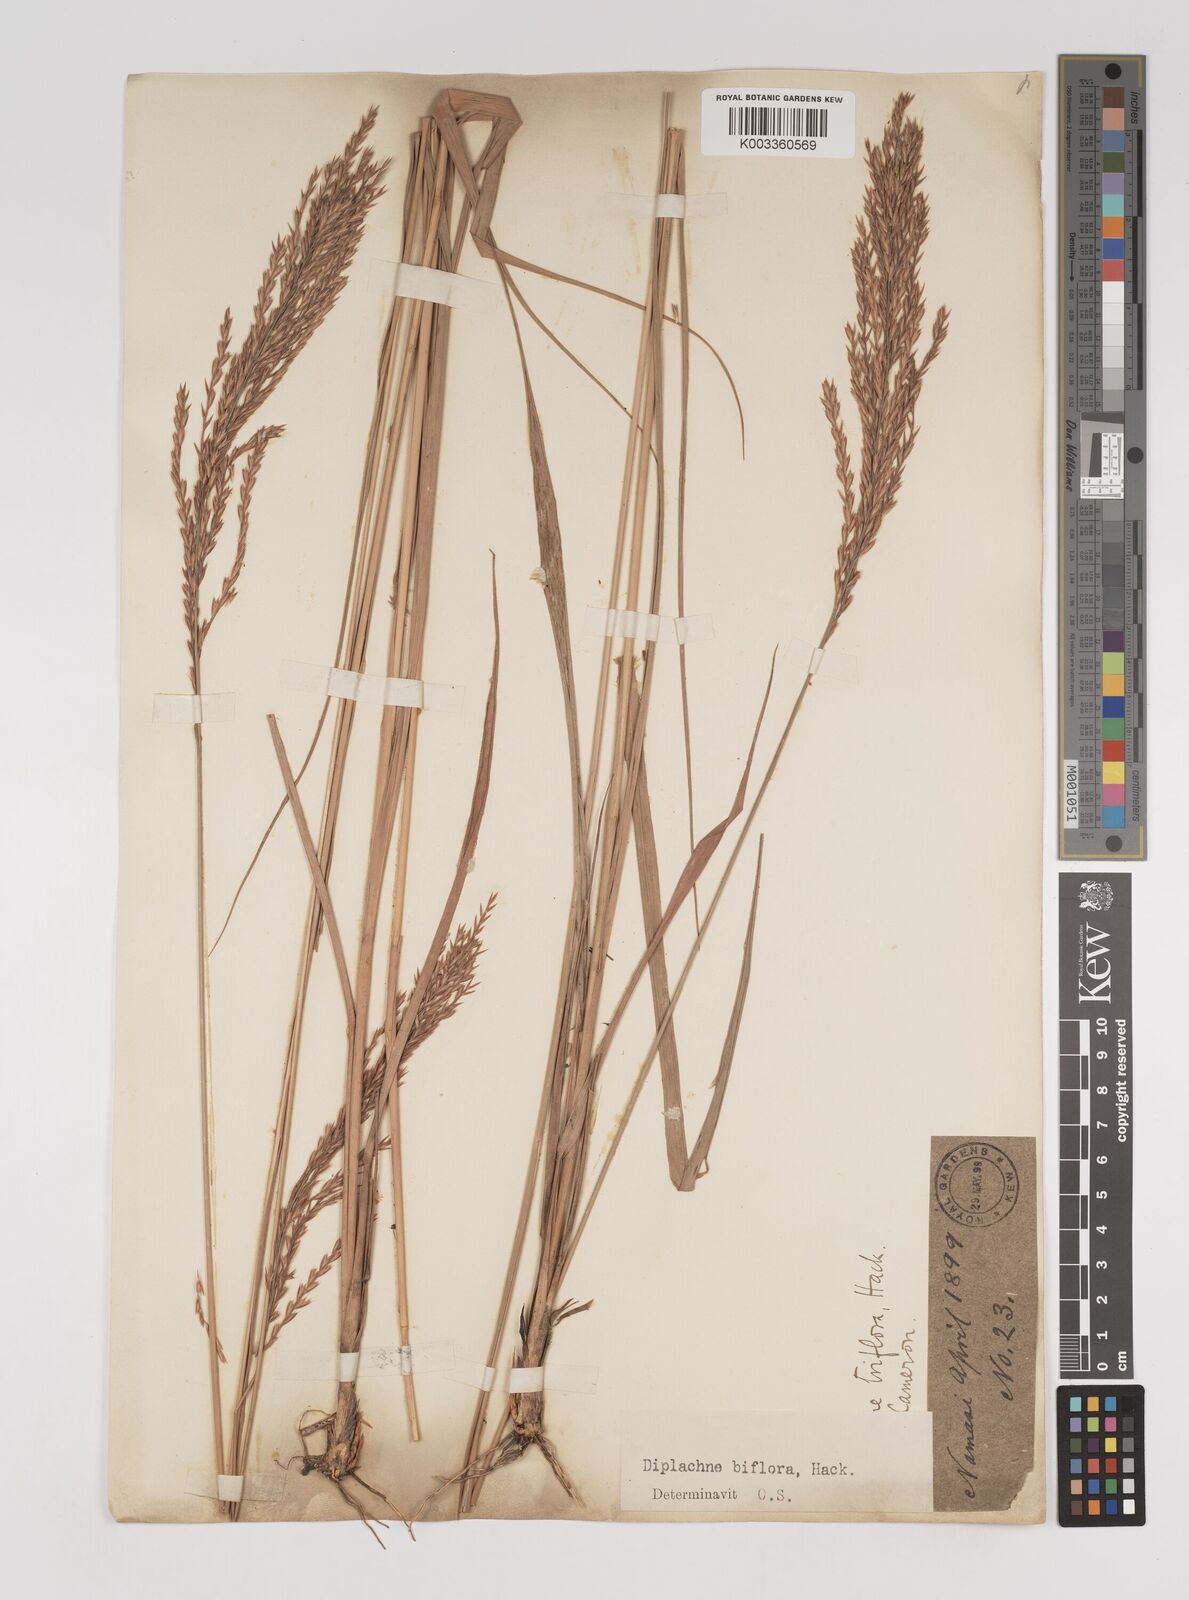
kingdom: Plantae
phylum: Tracheophyta
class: Liliopsida
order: Poales
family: Poaceae
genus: Bewsia
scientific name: Bewsia biflora
